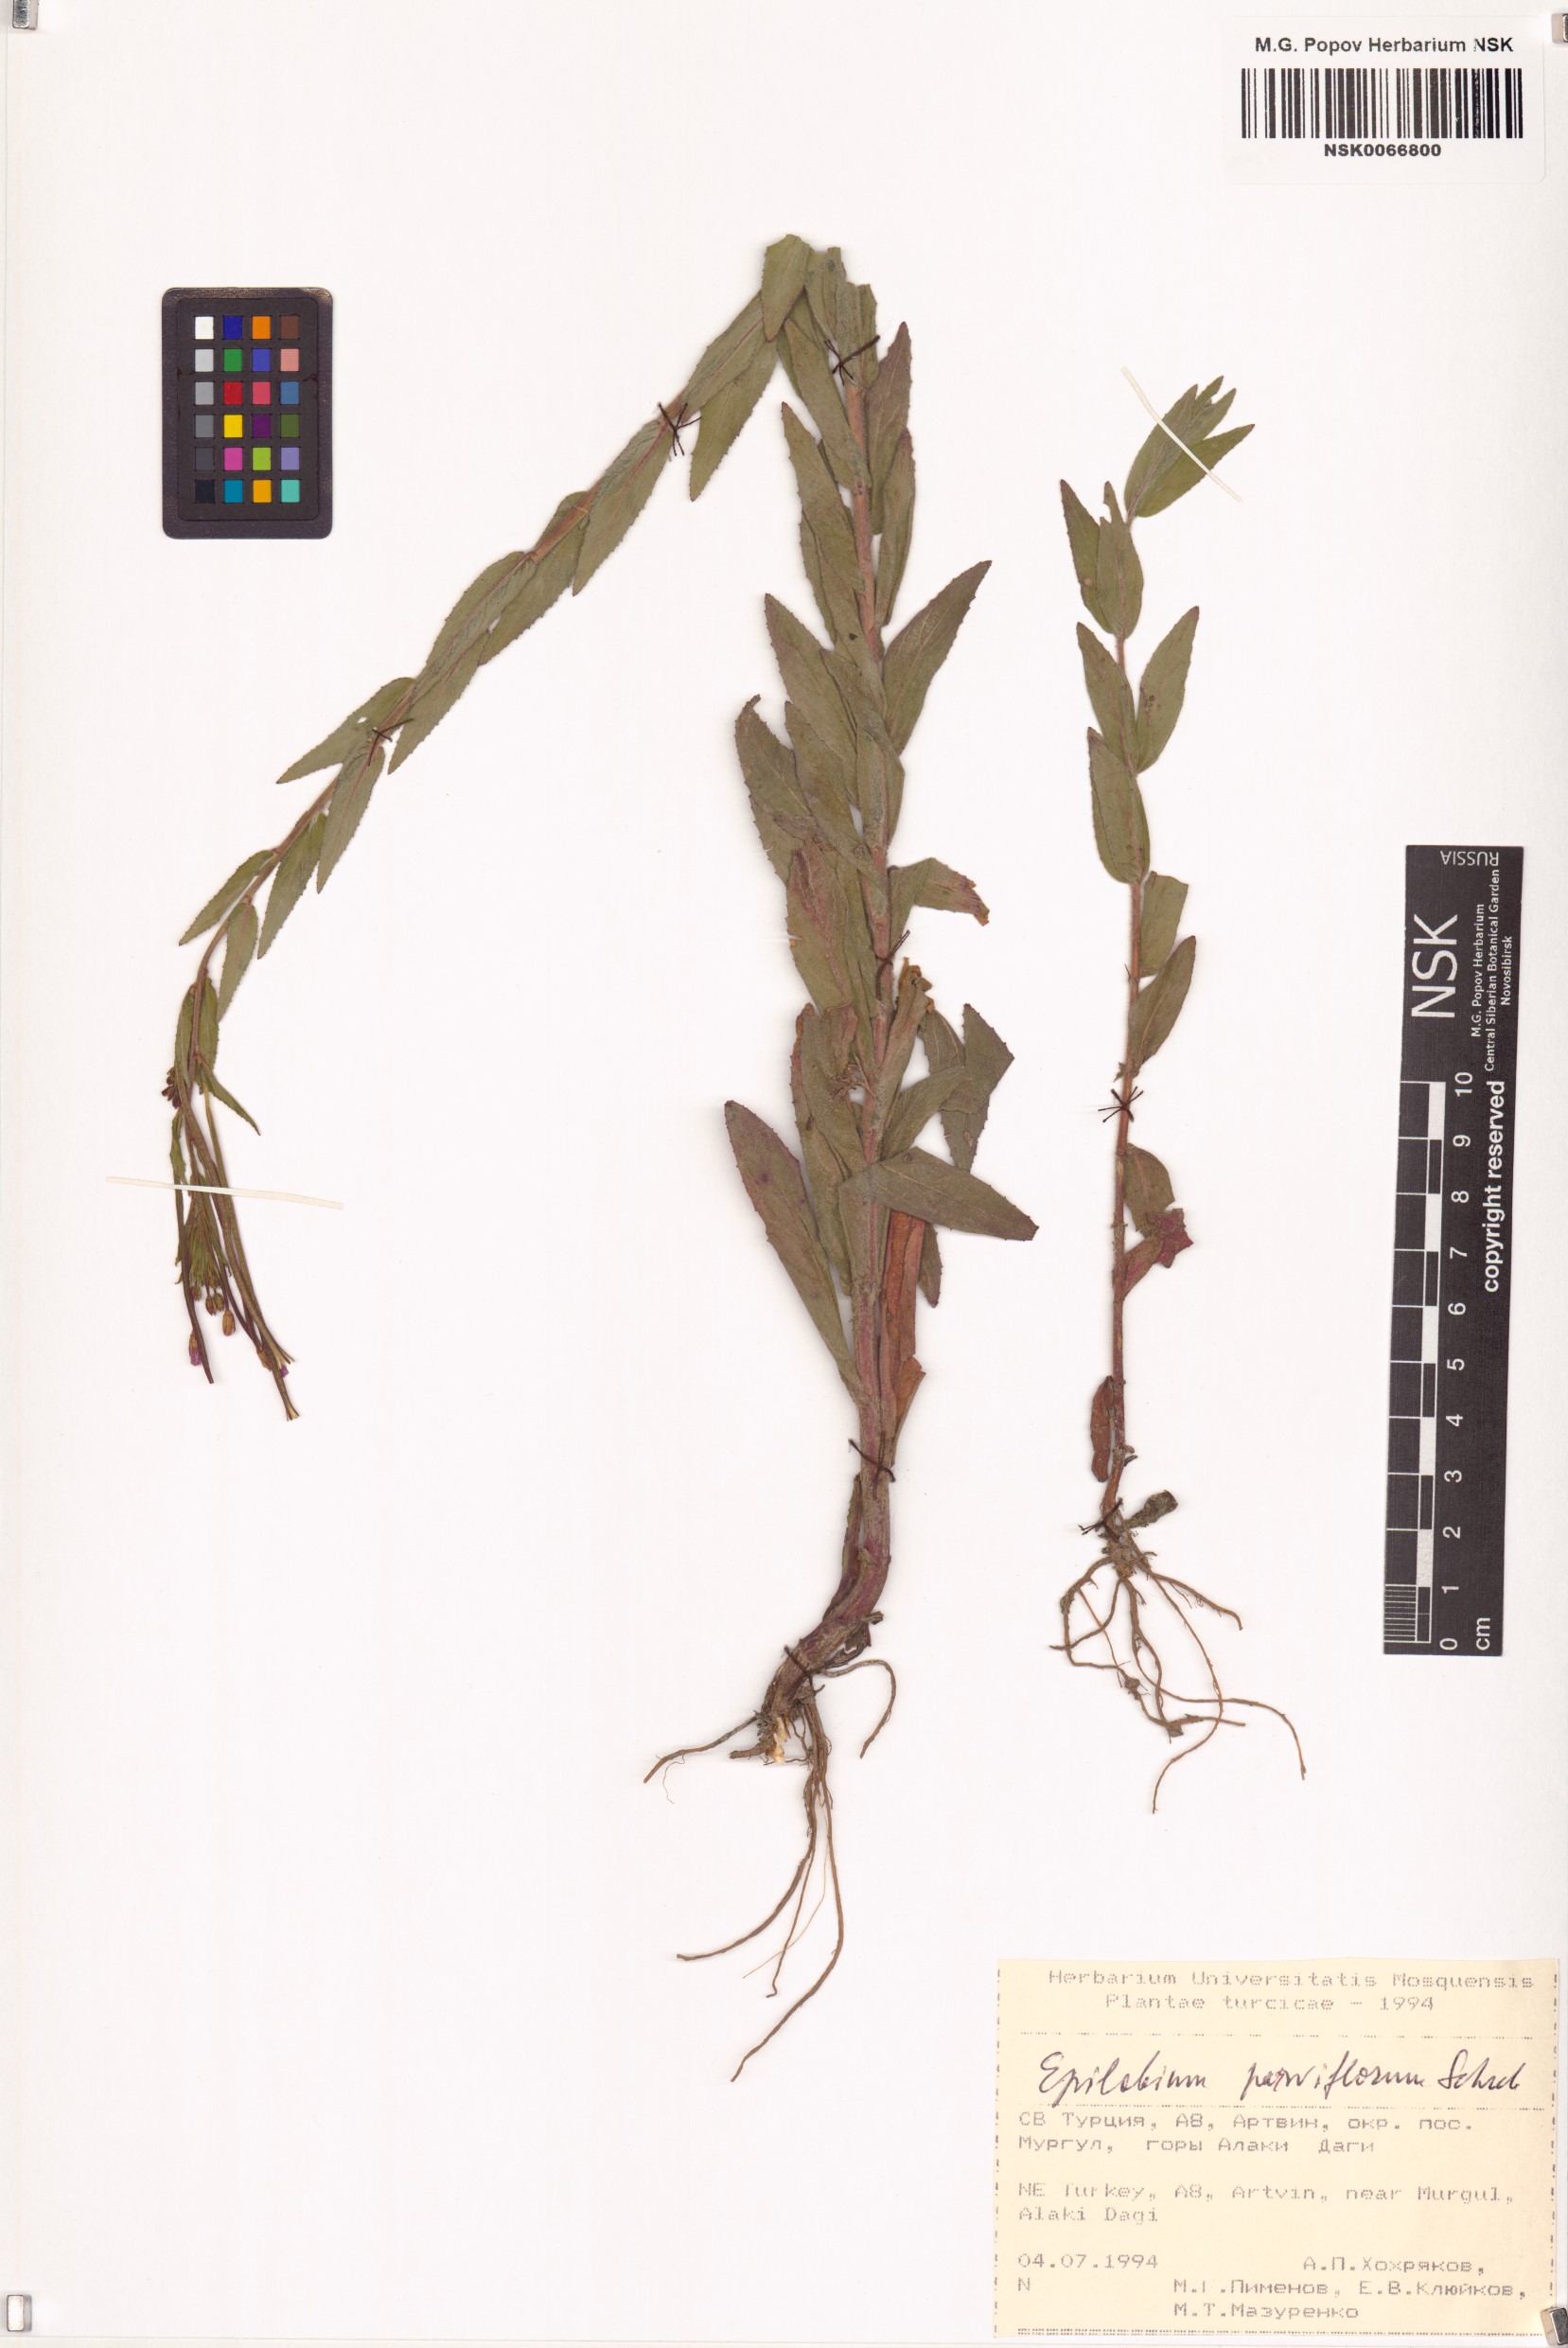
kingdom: Plantae
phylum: Tracheophyta
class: Magnoliopsida
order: Myrtales
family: Onagraceae
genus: Epilobium
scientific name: Epilobium parviflorum
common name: Hoary willowherb
